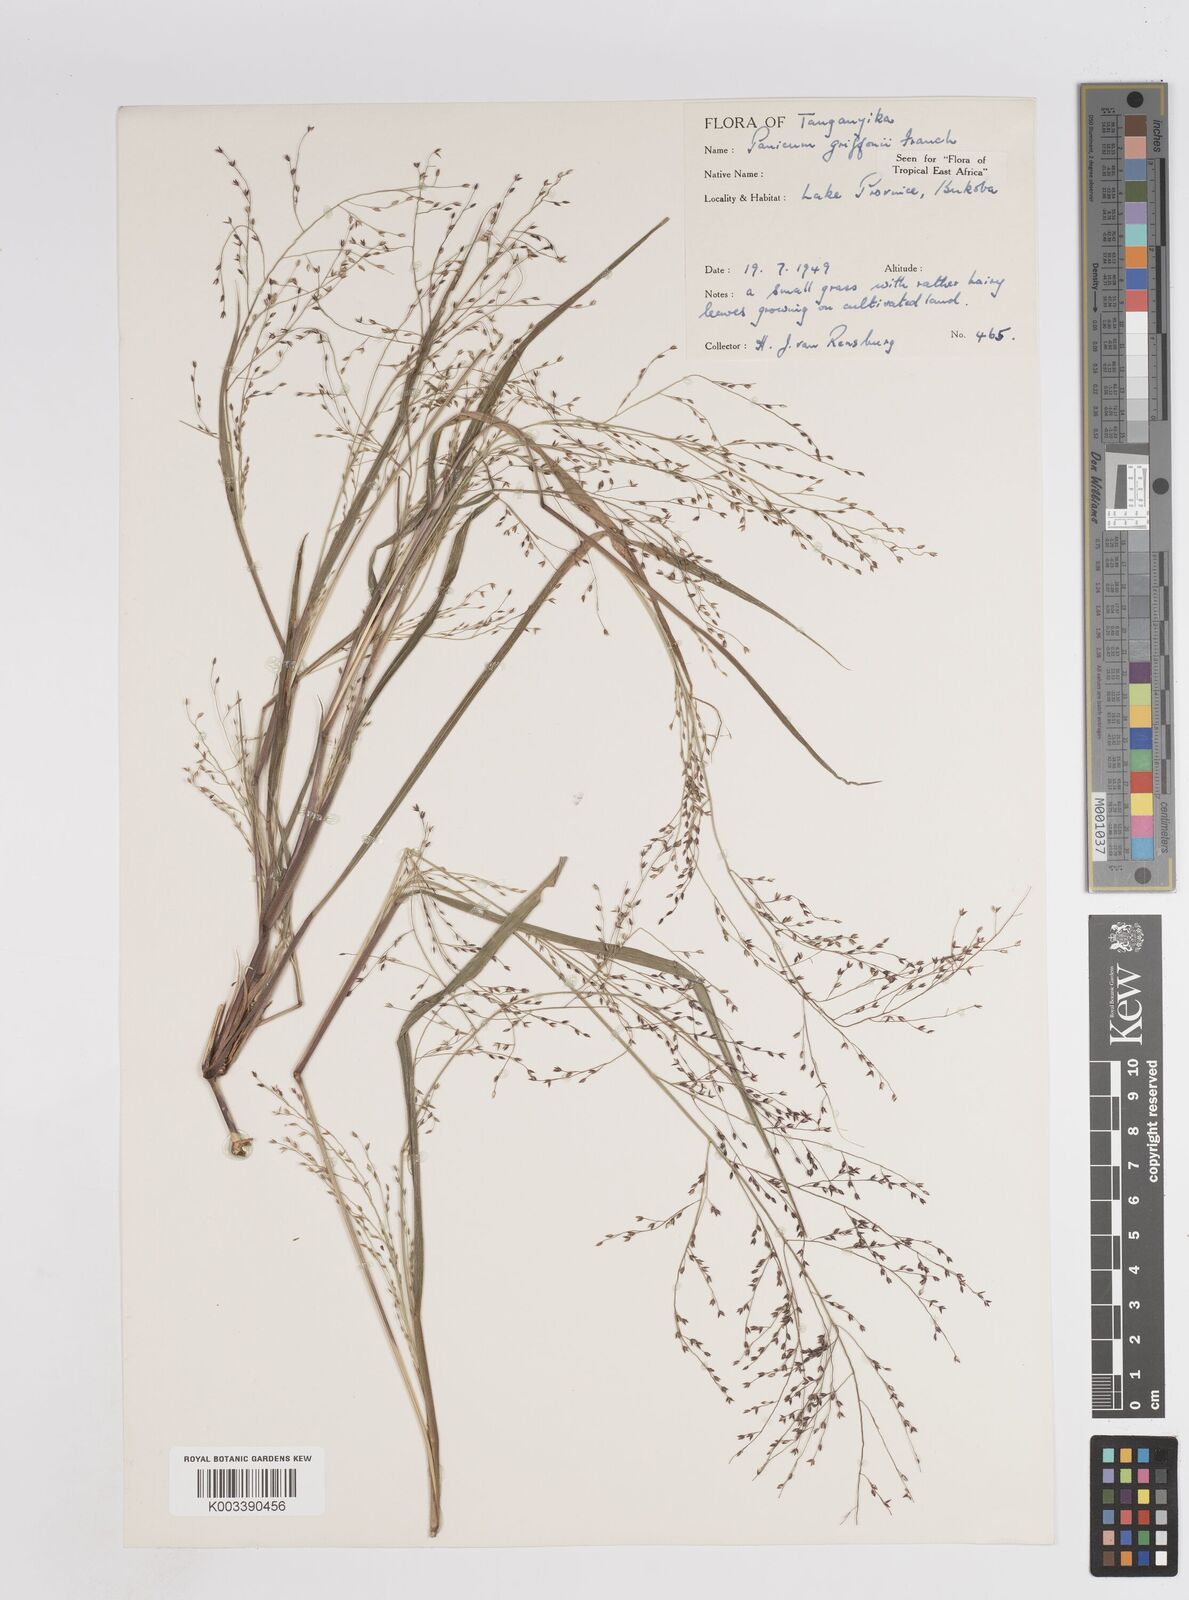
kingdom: Plantae
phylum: Tracheophyta
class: Liliopsida
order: Poales
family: Poaceae
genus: Panicum
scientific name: Panicum griffonii
